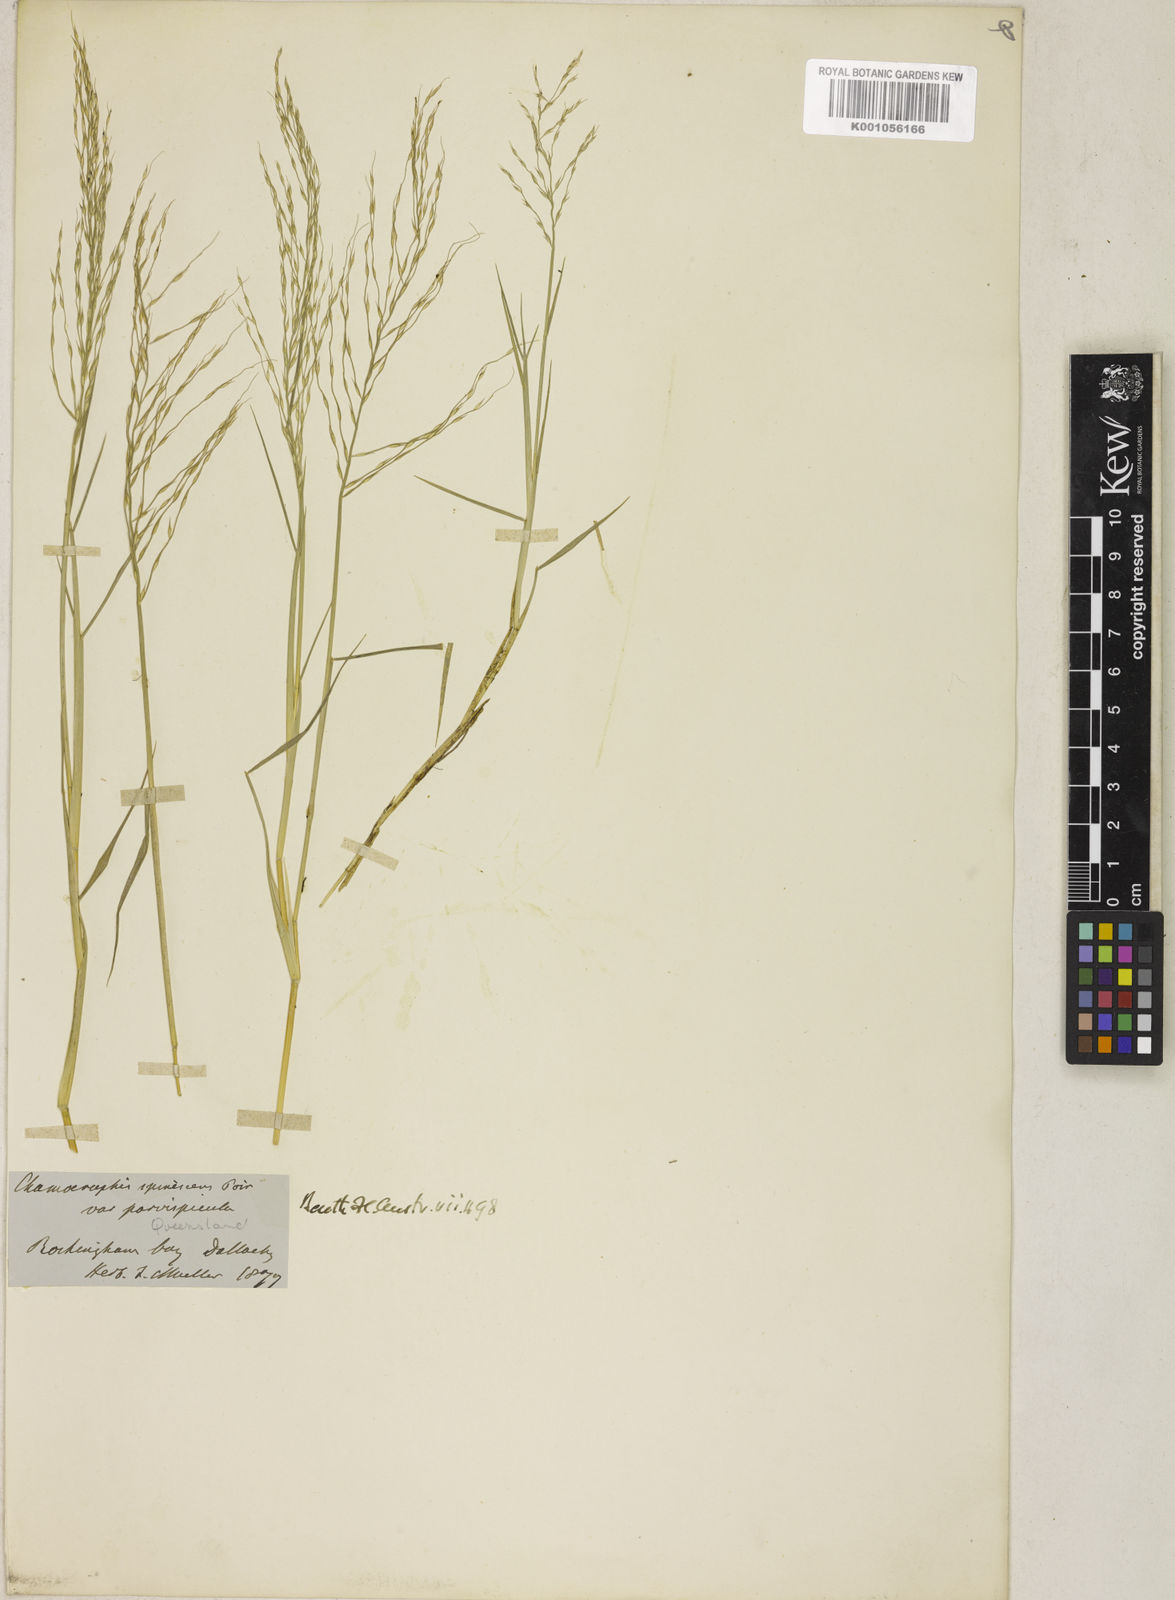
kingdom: Plantae
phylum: Tracheophyta
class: Liliopsida
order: Poales
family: Poaceae
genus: Pseudoraphis
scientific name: Pseudoraphis paradoxa
